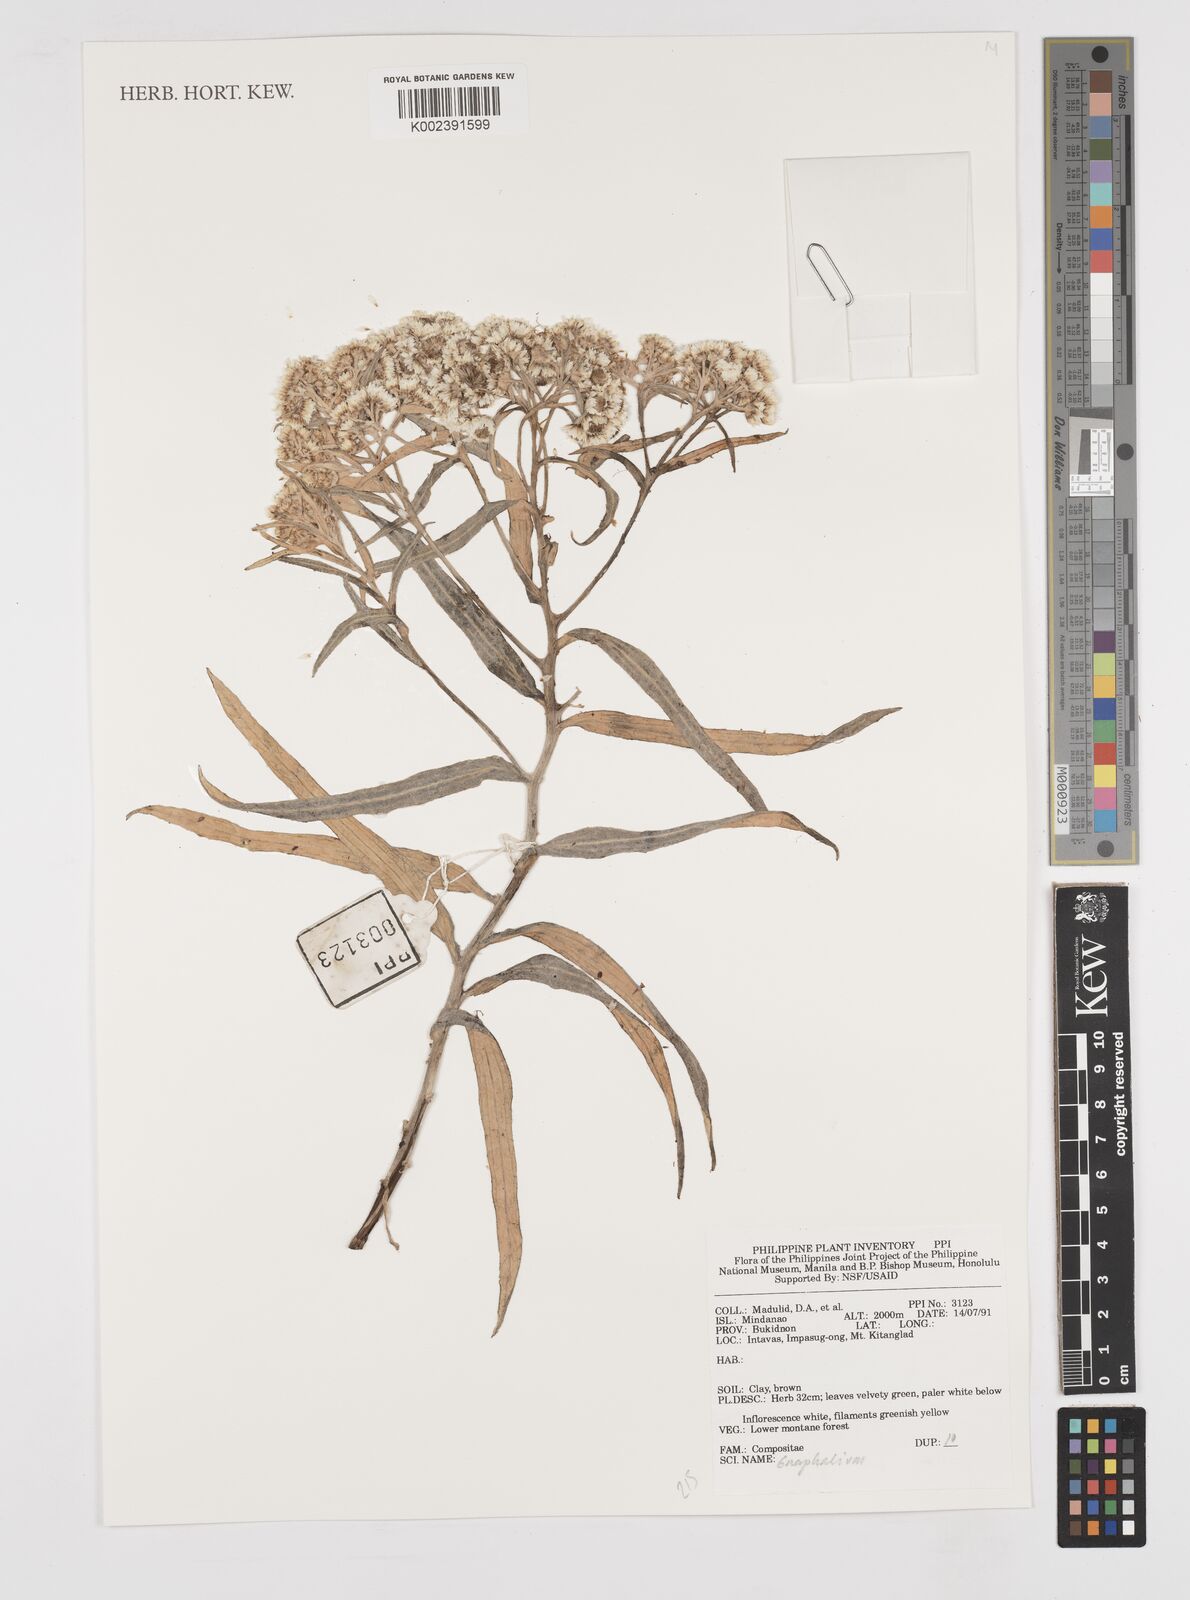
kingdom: Plantae
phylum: Tracheophyta
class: Magnoliopsida
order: Asterales
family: Asteraceae
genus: Gnaphalium
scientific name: Gnaphalium
